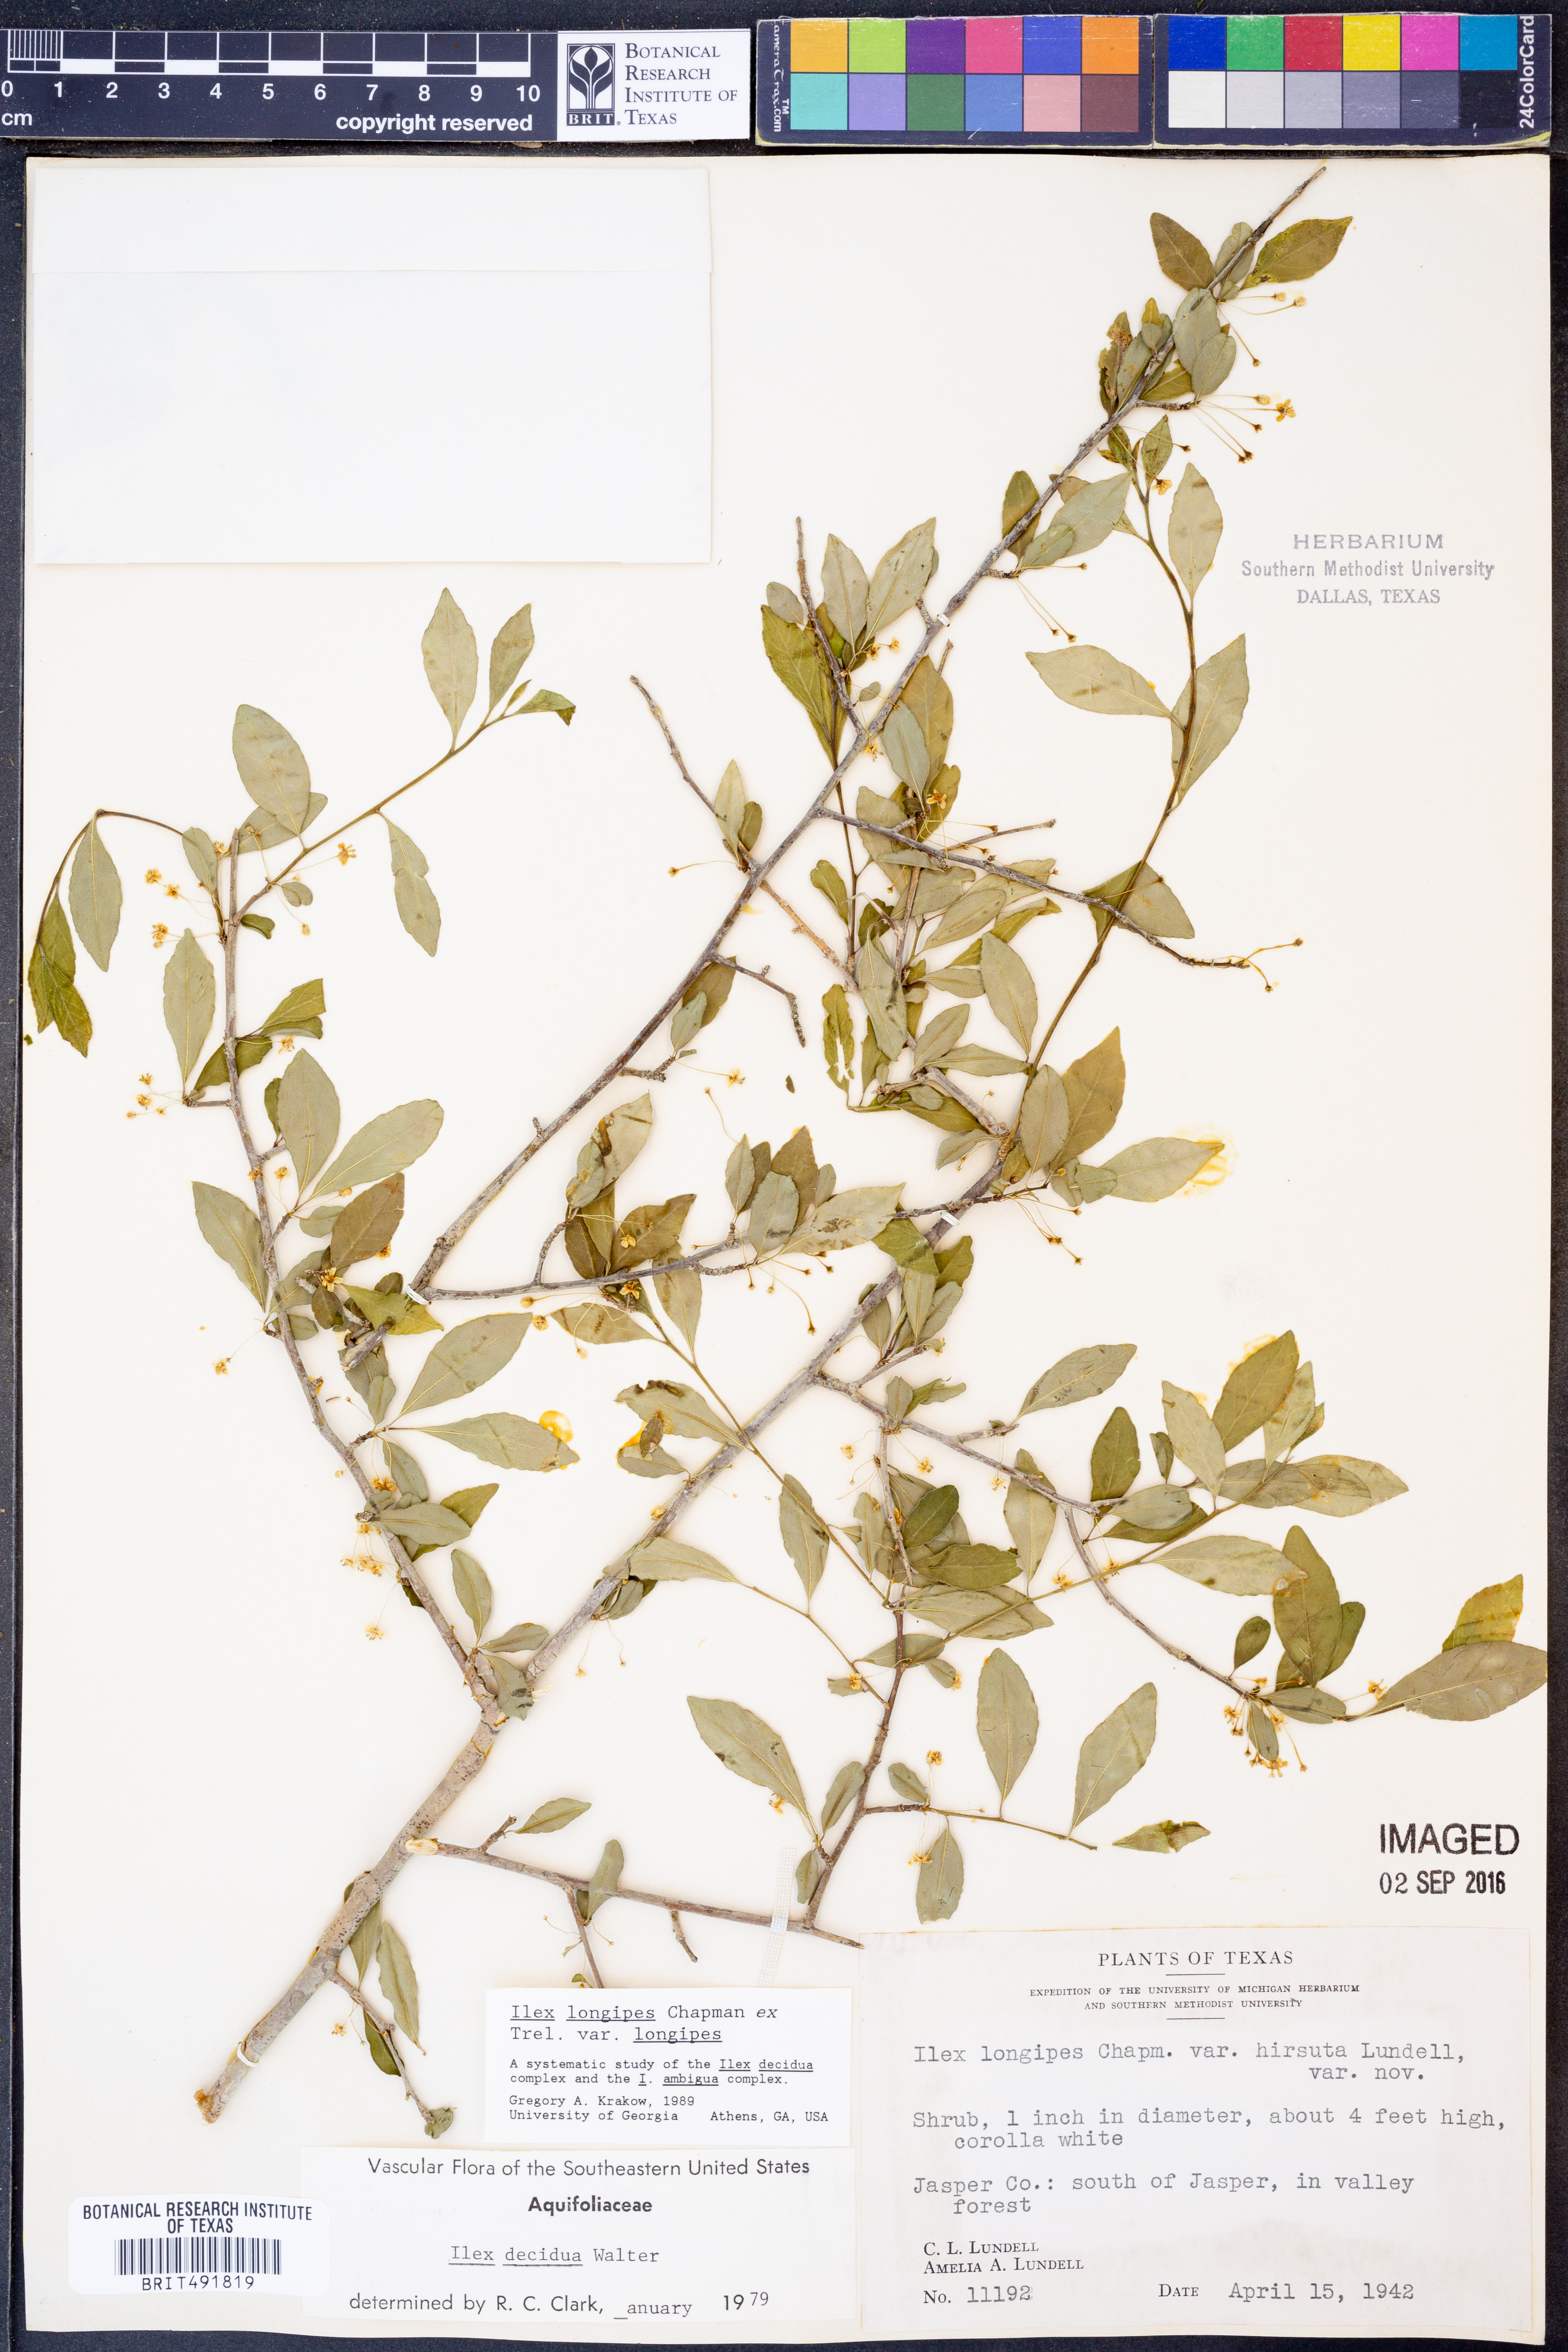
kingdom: Plantae
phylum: Tracheophyta
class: Magnoliopsida
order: Aquifoliales
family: Aquifoliaceae
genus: Ilex
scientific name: Ilex longipes
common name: Georgia holly
